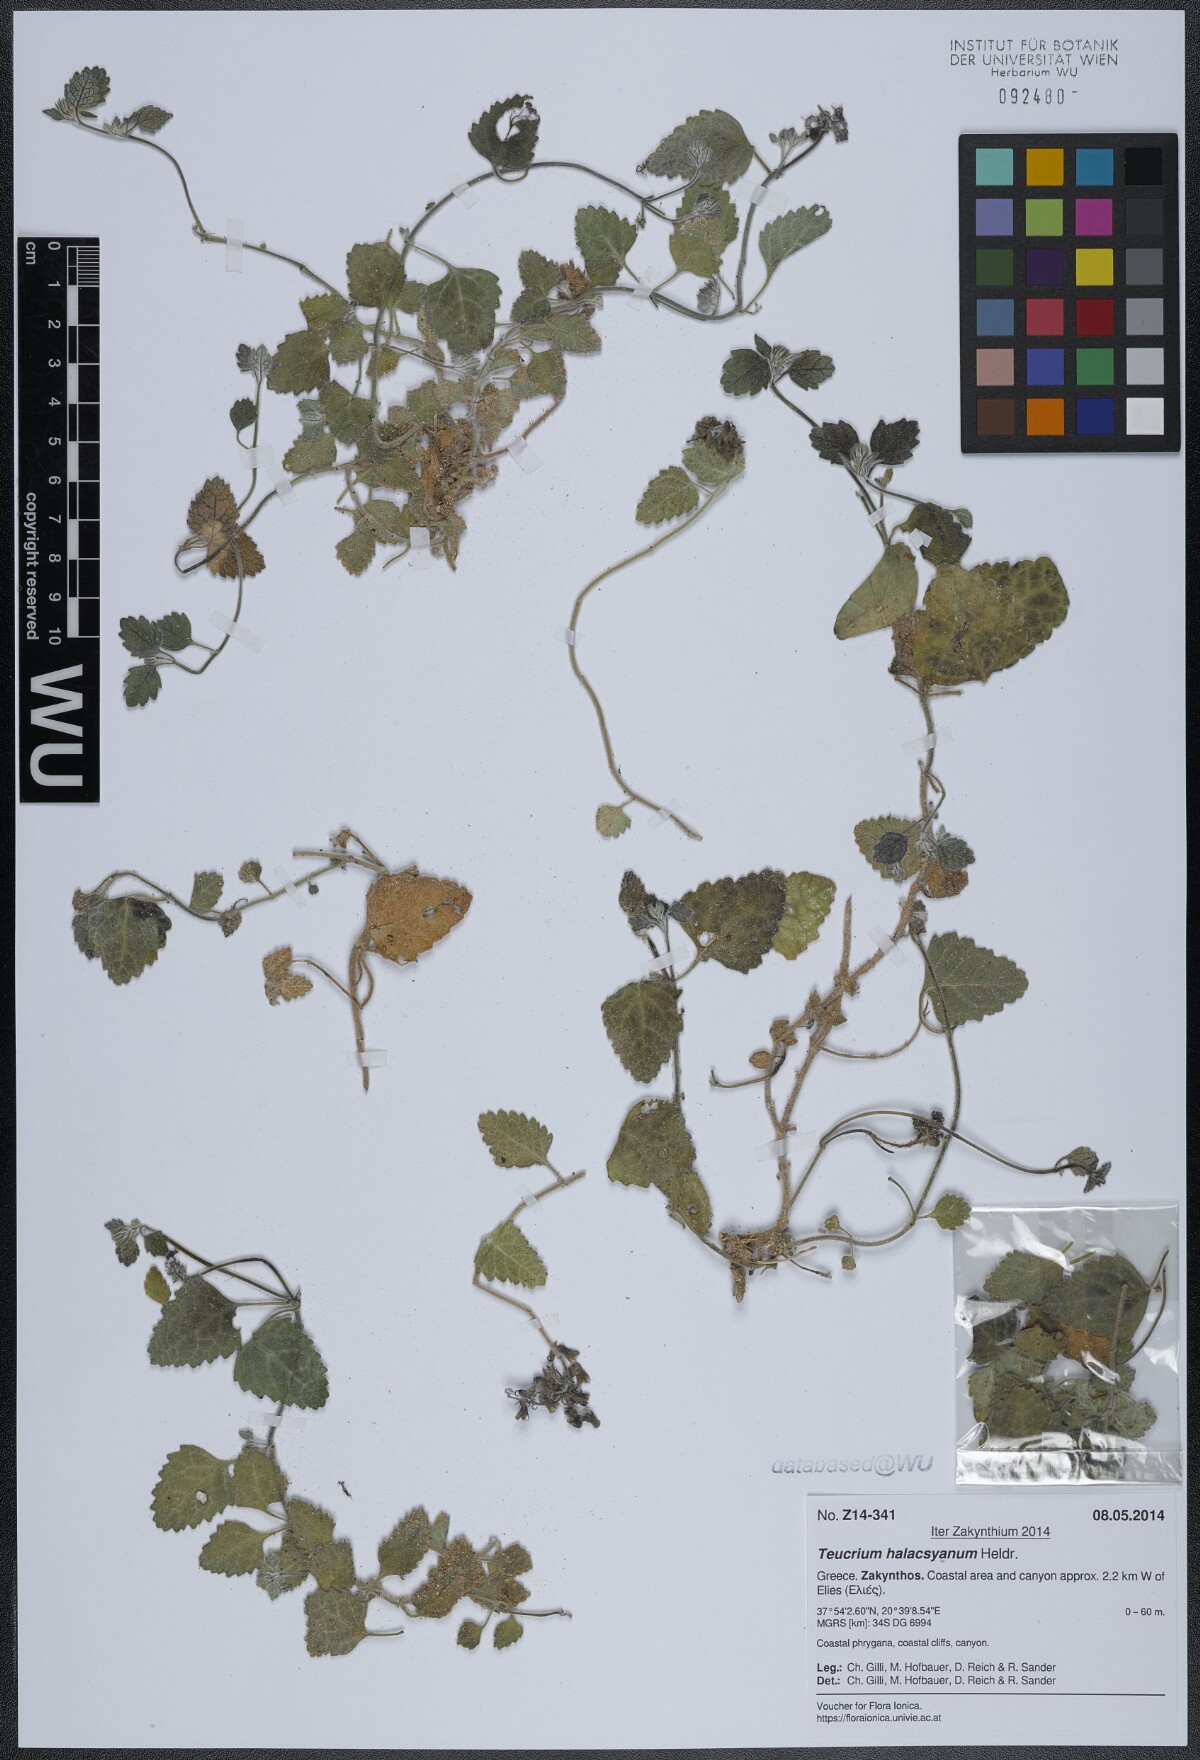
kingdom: Plantae
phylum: Tracheophyta
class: Magnoliopsida
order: Lamiales
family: Lamiaceae
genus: Teucrium
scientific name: Teucrium halacsyanum
